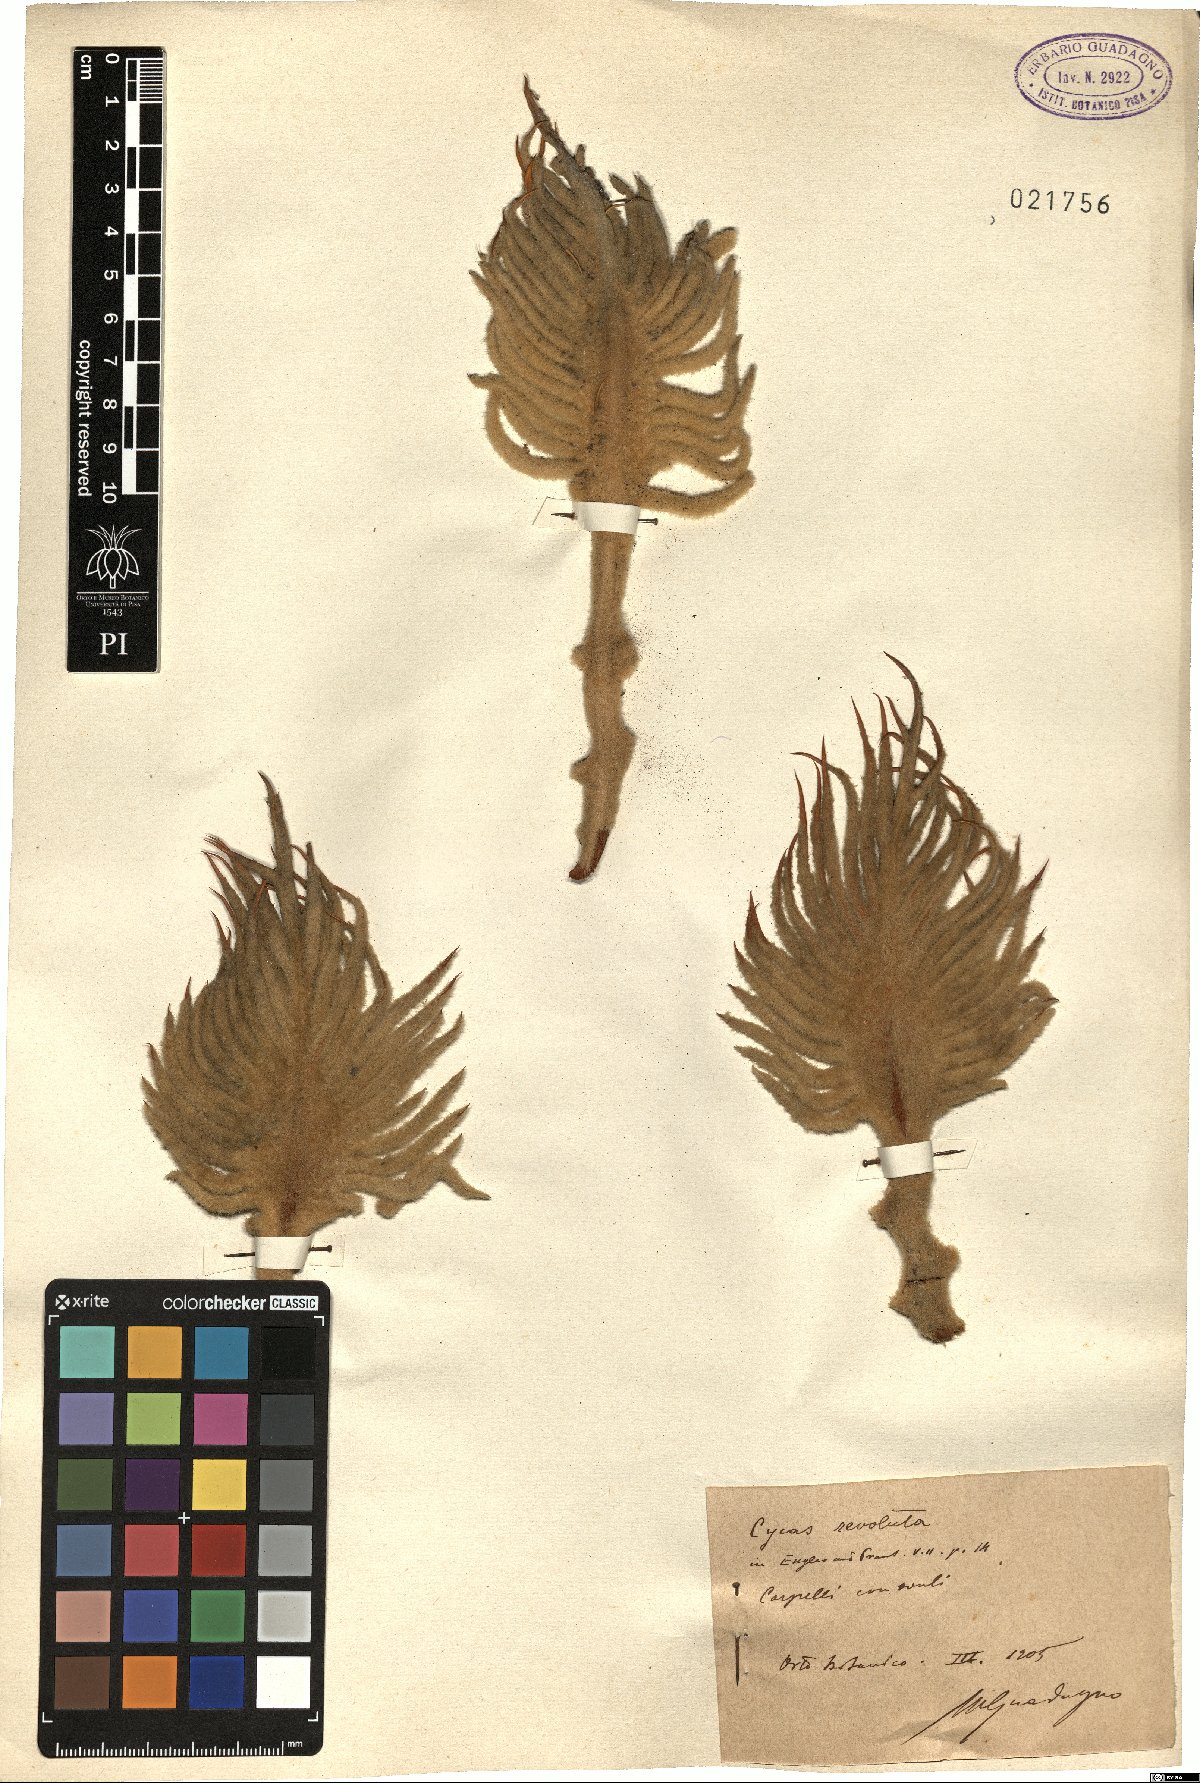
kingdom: Plantae
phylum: Tracheophyta
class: Cycadopsida
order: Cycadales
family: Cycadaceae
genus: Cycas
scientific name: Cycas revoluta
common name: Sago palm
